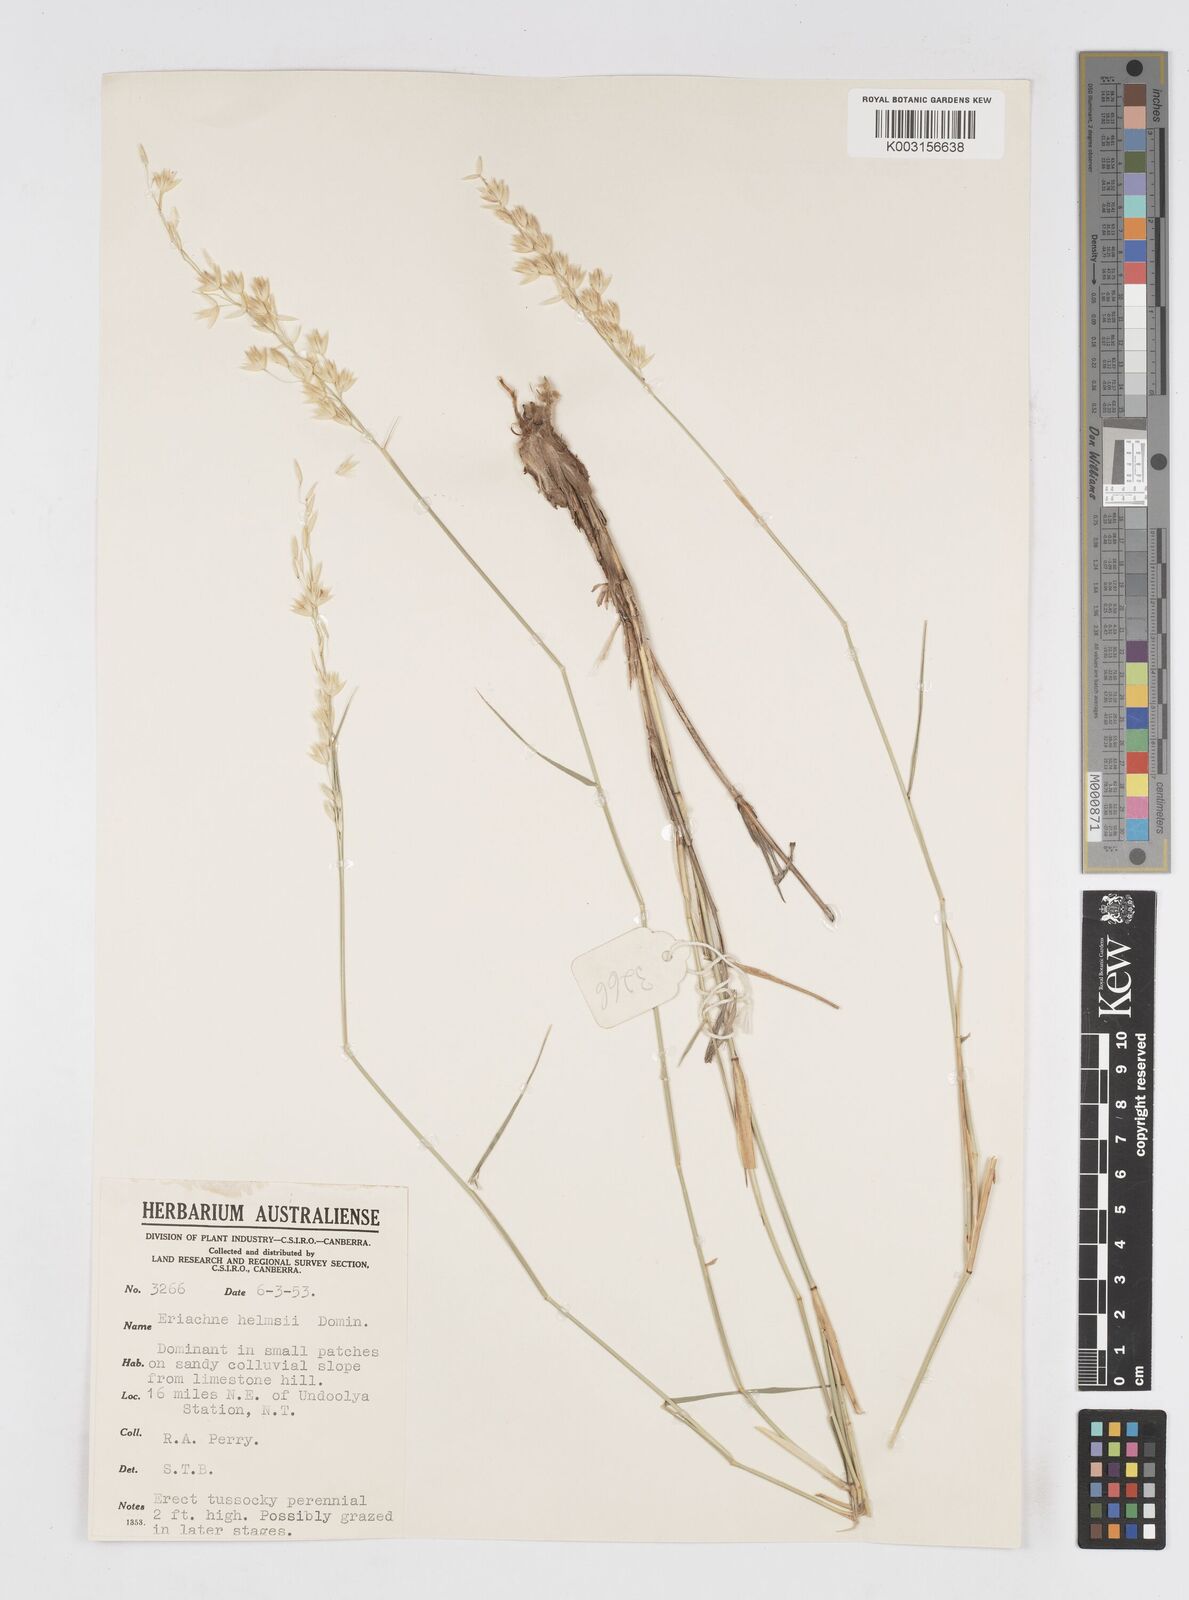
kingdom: Plantae
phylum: Tracheophyta
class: Liliopsida
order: Poales
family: Poaceae
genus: Eriachne
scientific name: Eriachne helmsii
